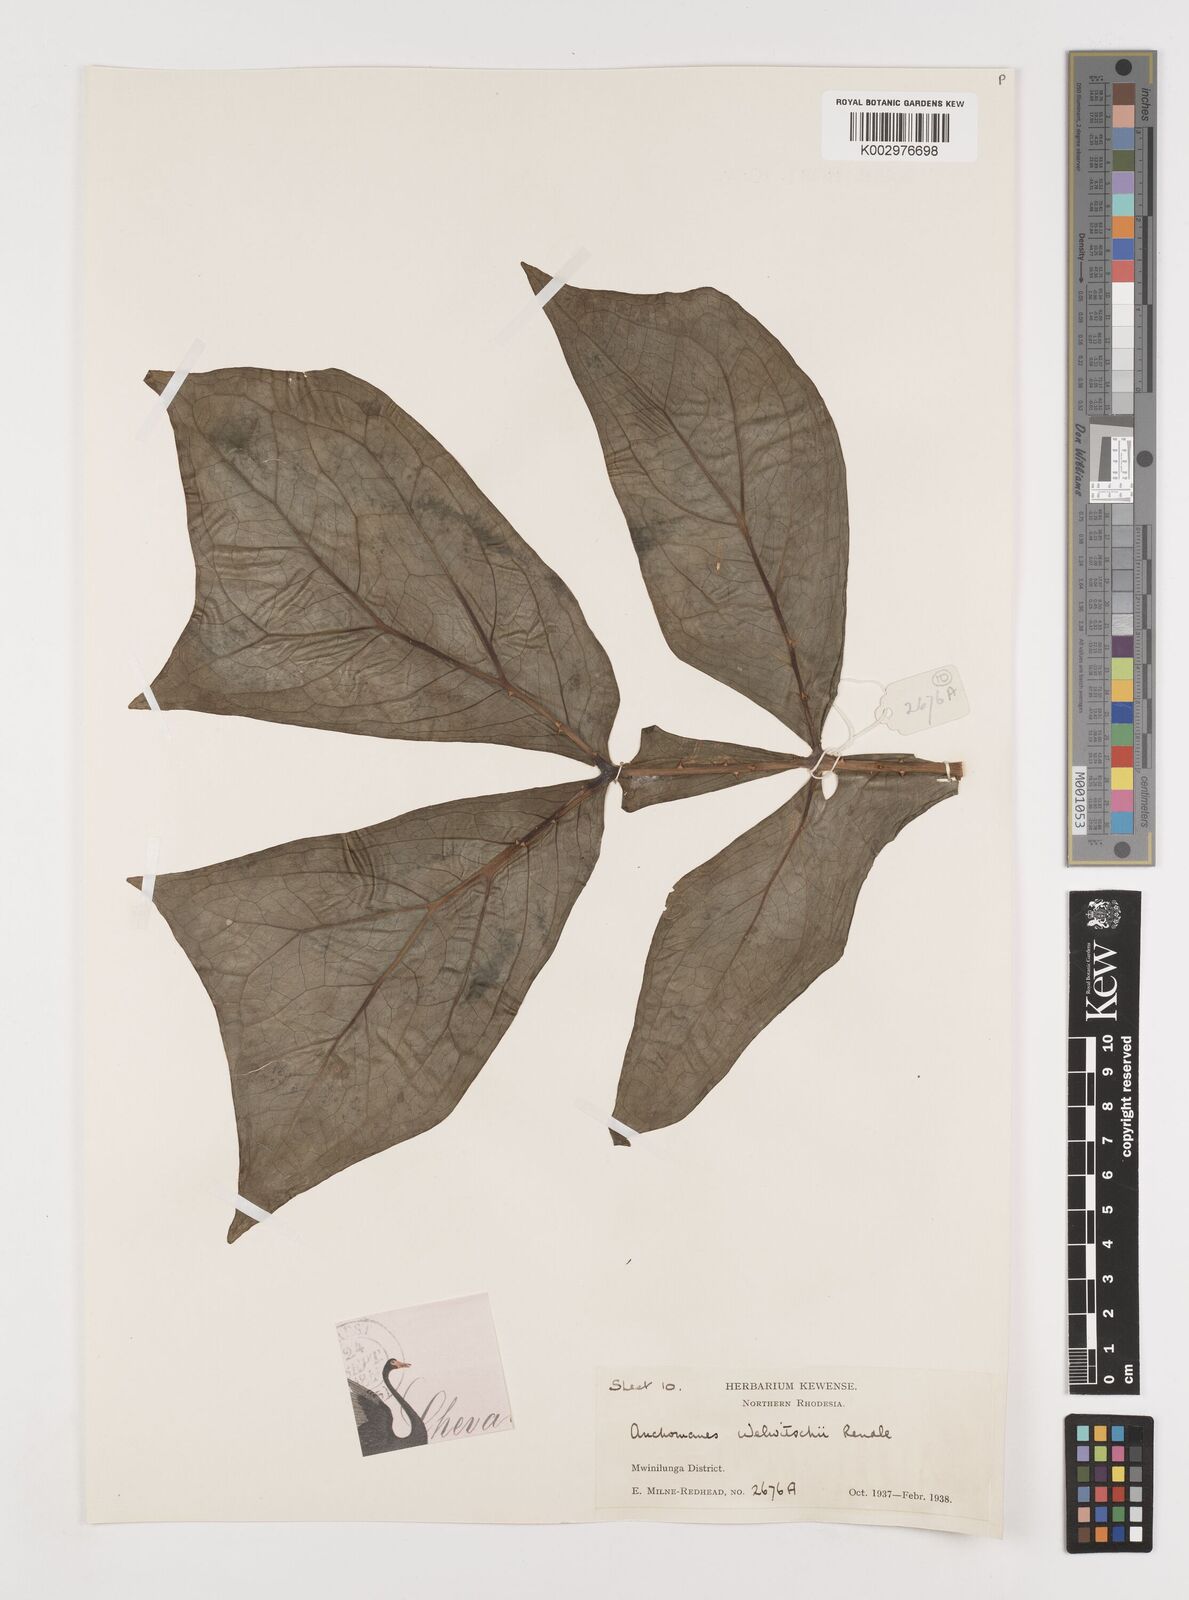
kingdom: Plantae
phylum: Tracheophyta
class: Liliopsida
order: Alismatales
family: Araceae
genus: Anchomanes
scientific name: Anchomanes difformis
